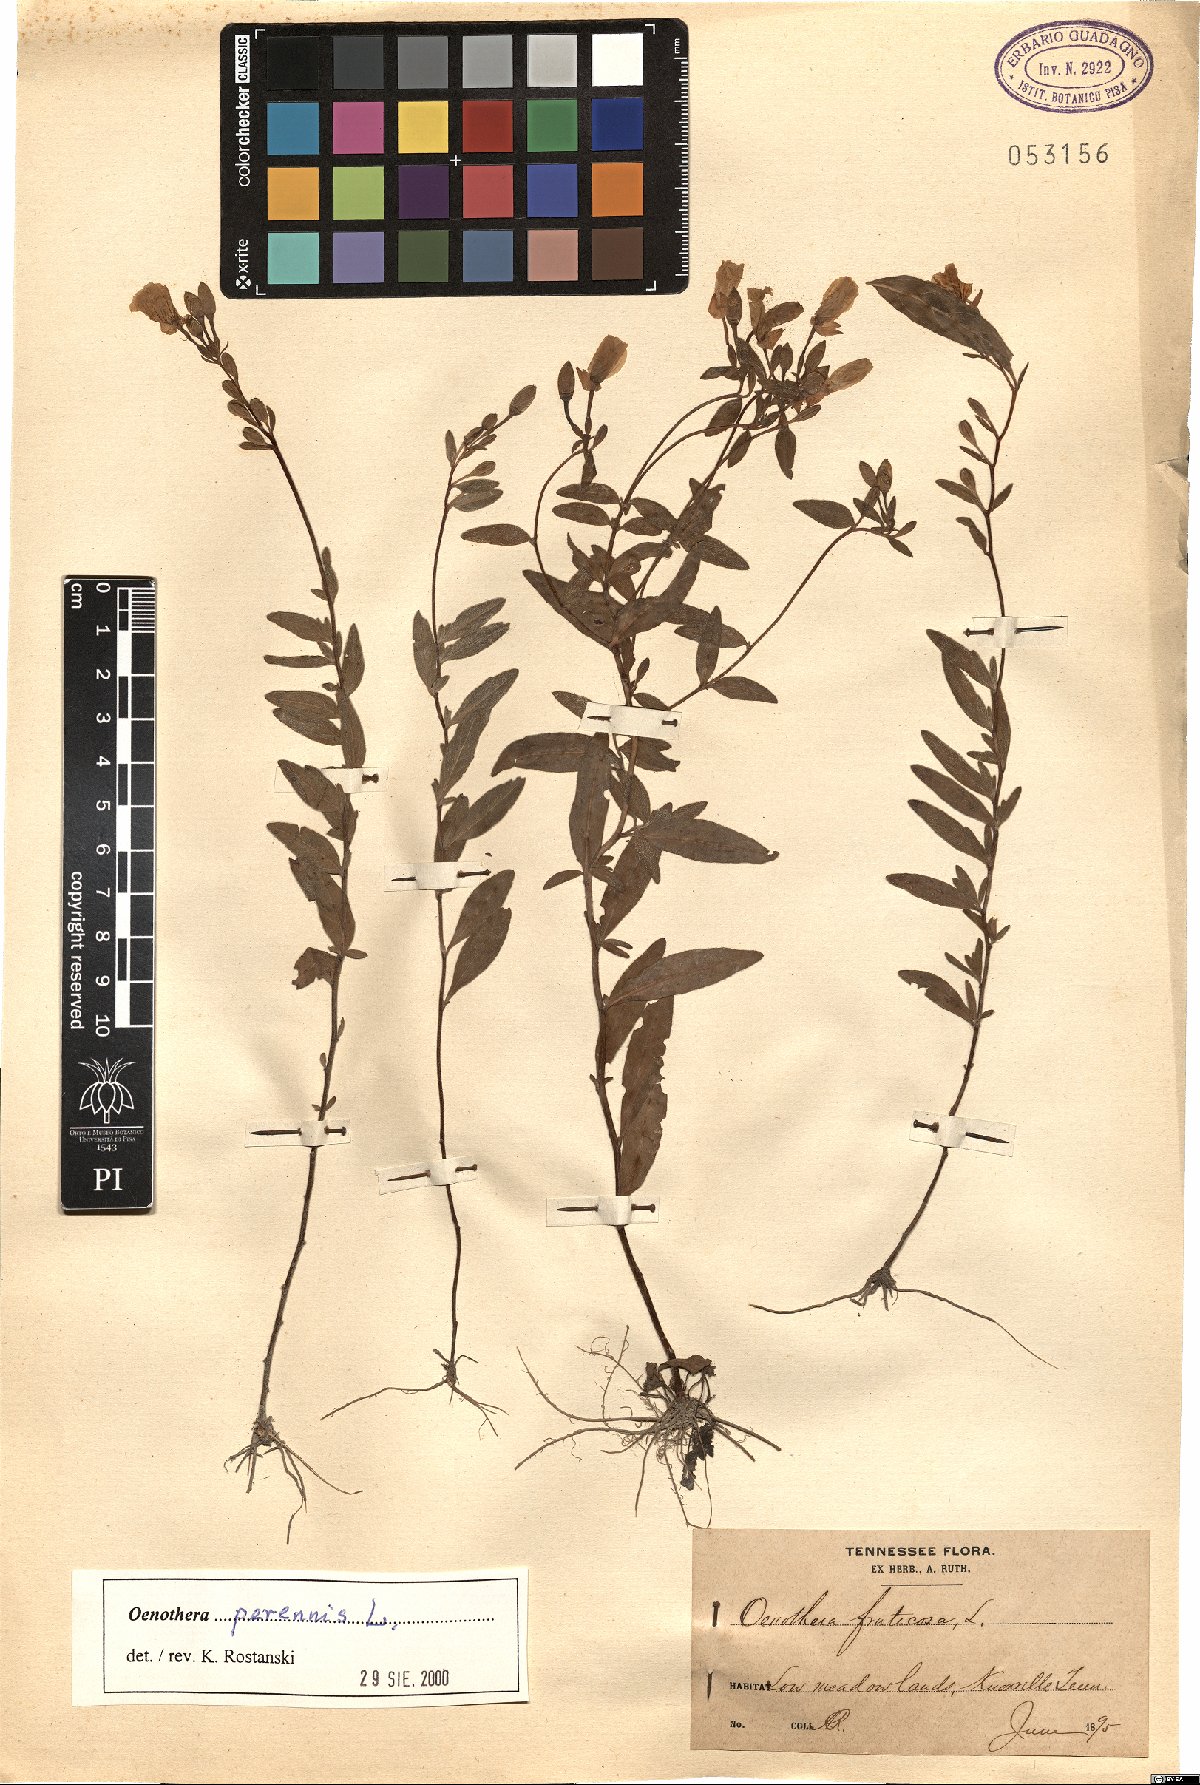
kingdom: Plantae
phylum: Tracheophyta
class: Magnoliopsida
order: Myrtales
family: Onagraceae
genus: Oenothera
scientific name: Oenothera perennis
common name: Small sundrops
